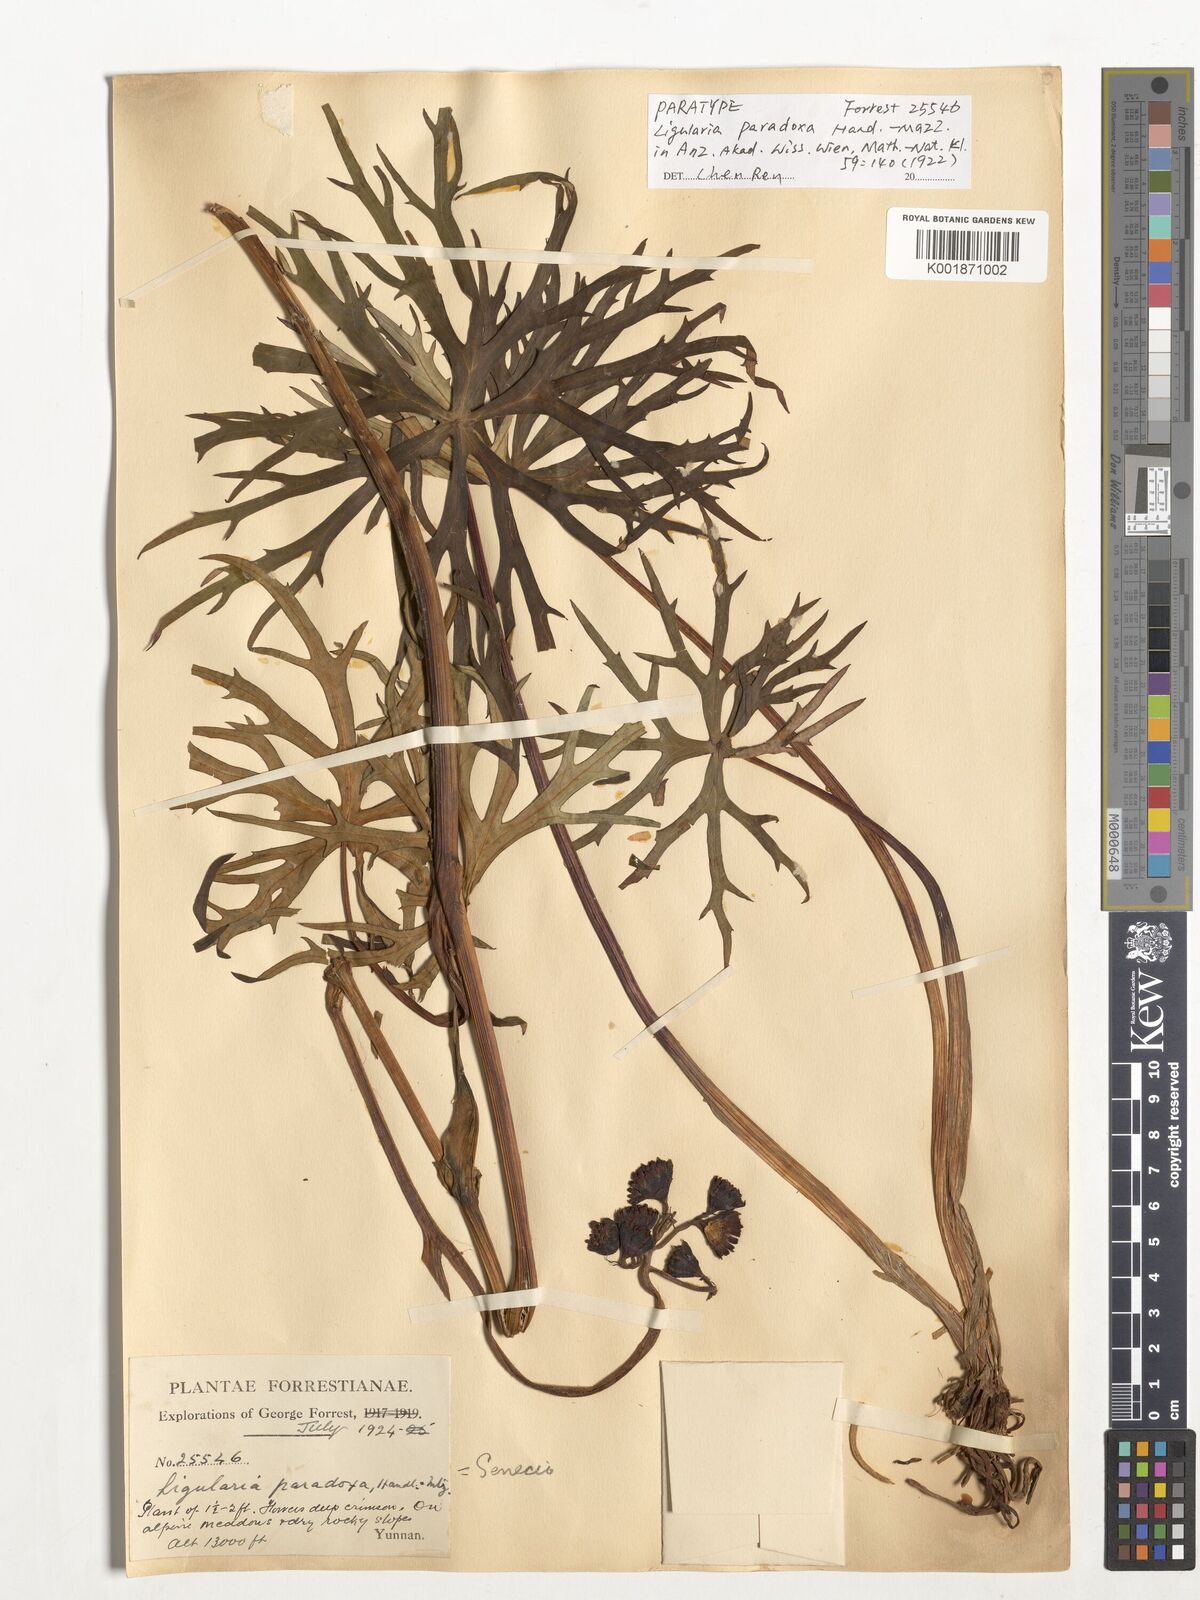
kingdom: Plantae
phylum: Tracheophyta
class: Magnoliopsida
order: Asterales
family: Asteraceae
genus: Ligularia
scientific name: Ligularia paradoxa
